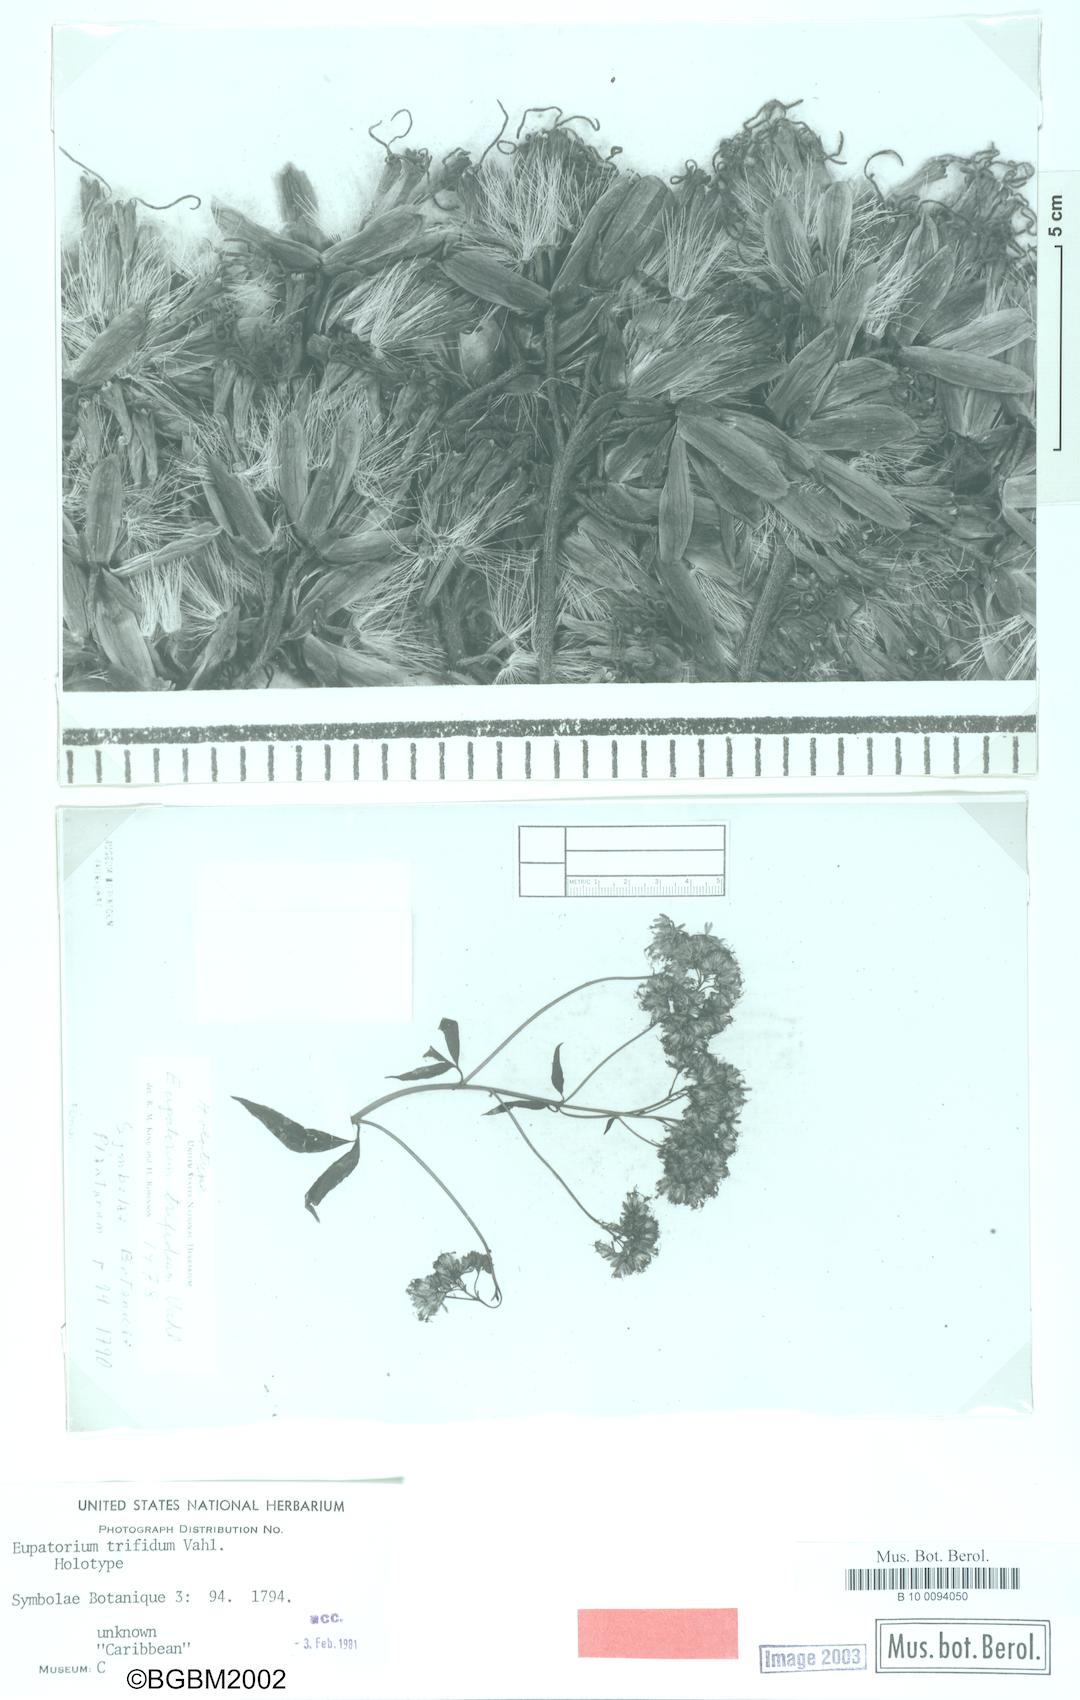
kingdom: Plantae
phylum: Tracheophyta
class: Magnoliopsida
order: Asterales
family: Asteraceae
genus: Eupatorium
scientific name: Eupatorium cannabinum
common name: Hemp-agrimony
